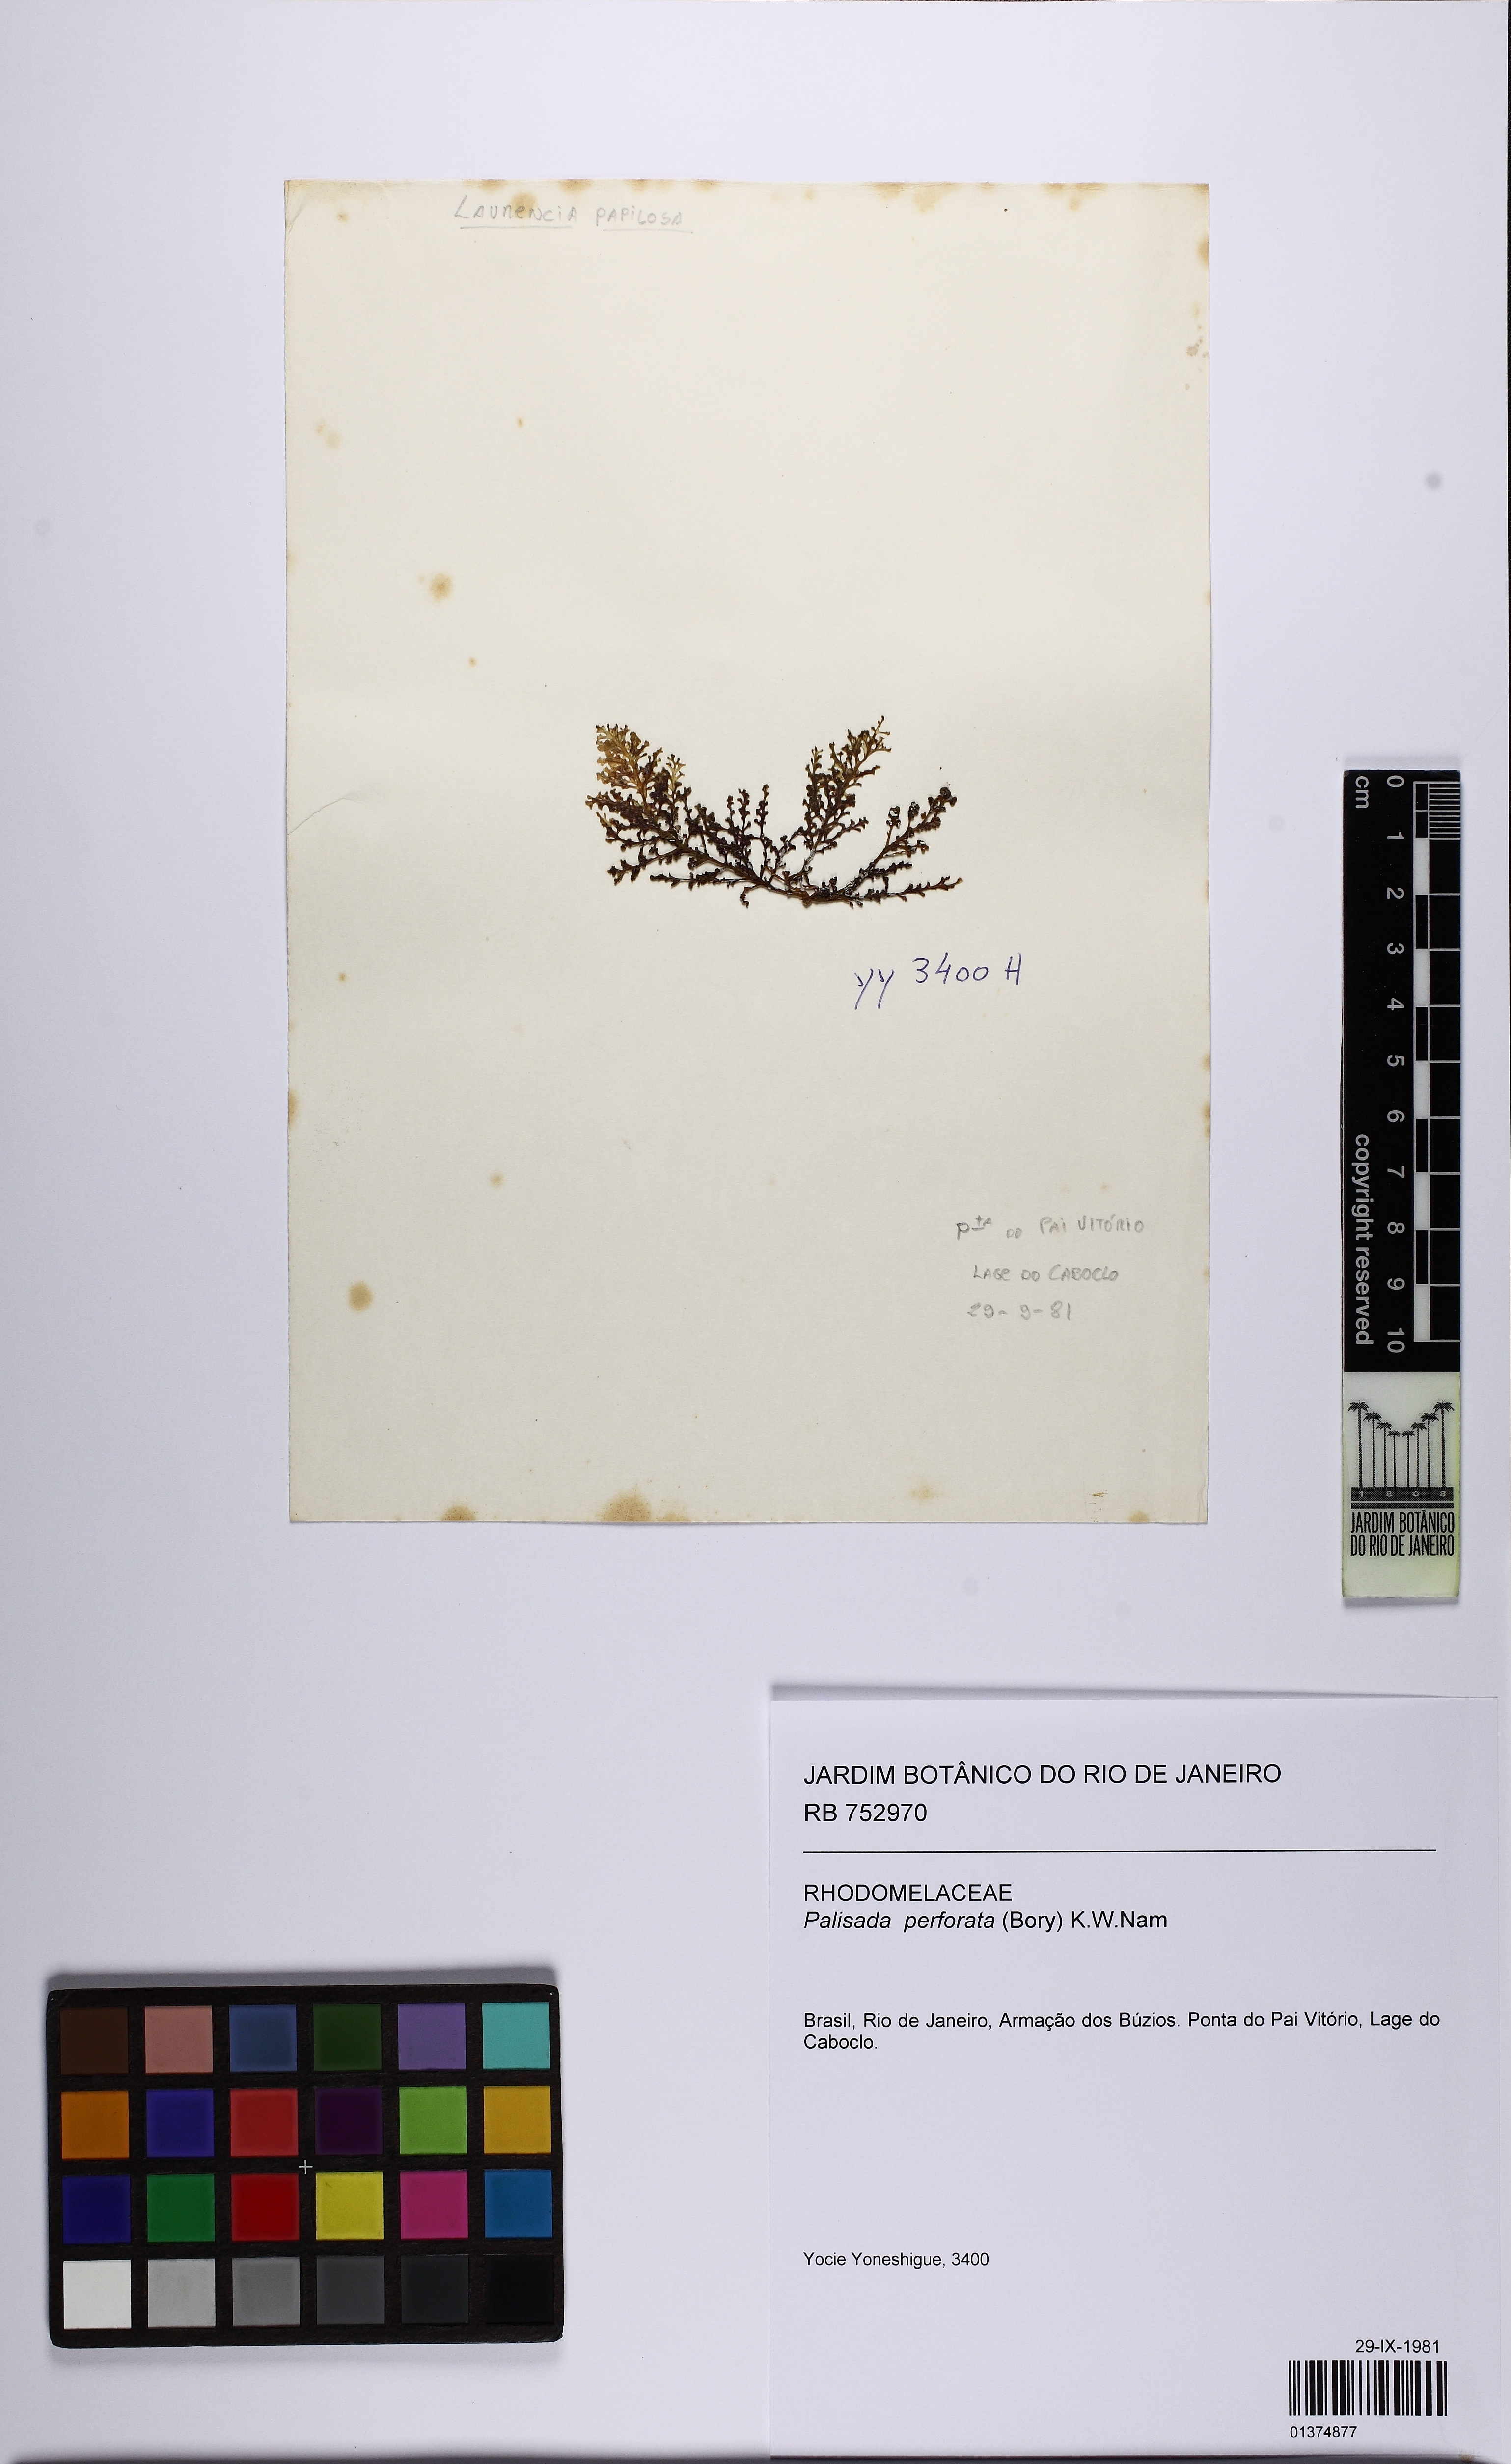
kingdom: Plantae
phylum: Rhodophyta
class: Florideophyceae
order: Ceramiales
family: Rhodomelaceae
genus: Palisada
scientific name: Palisada perforata
